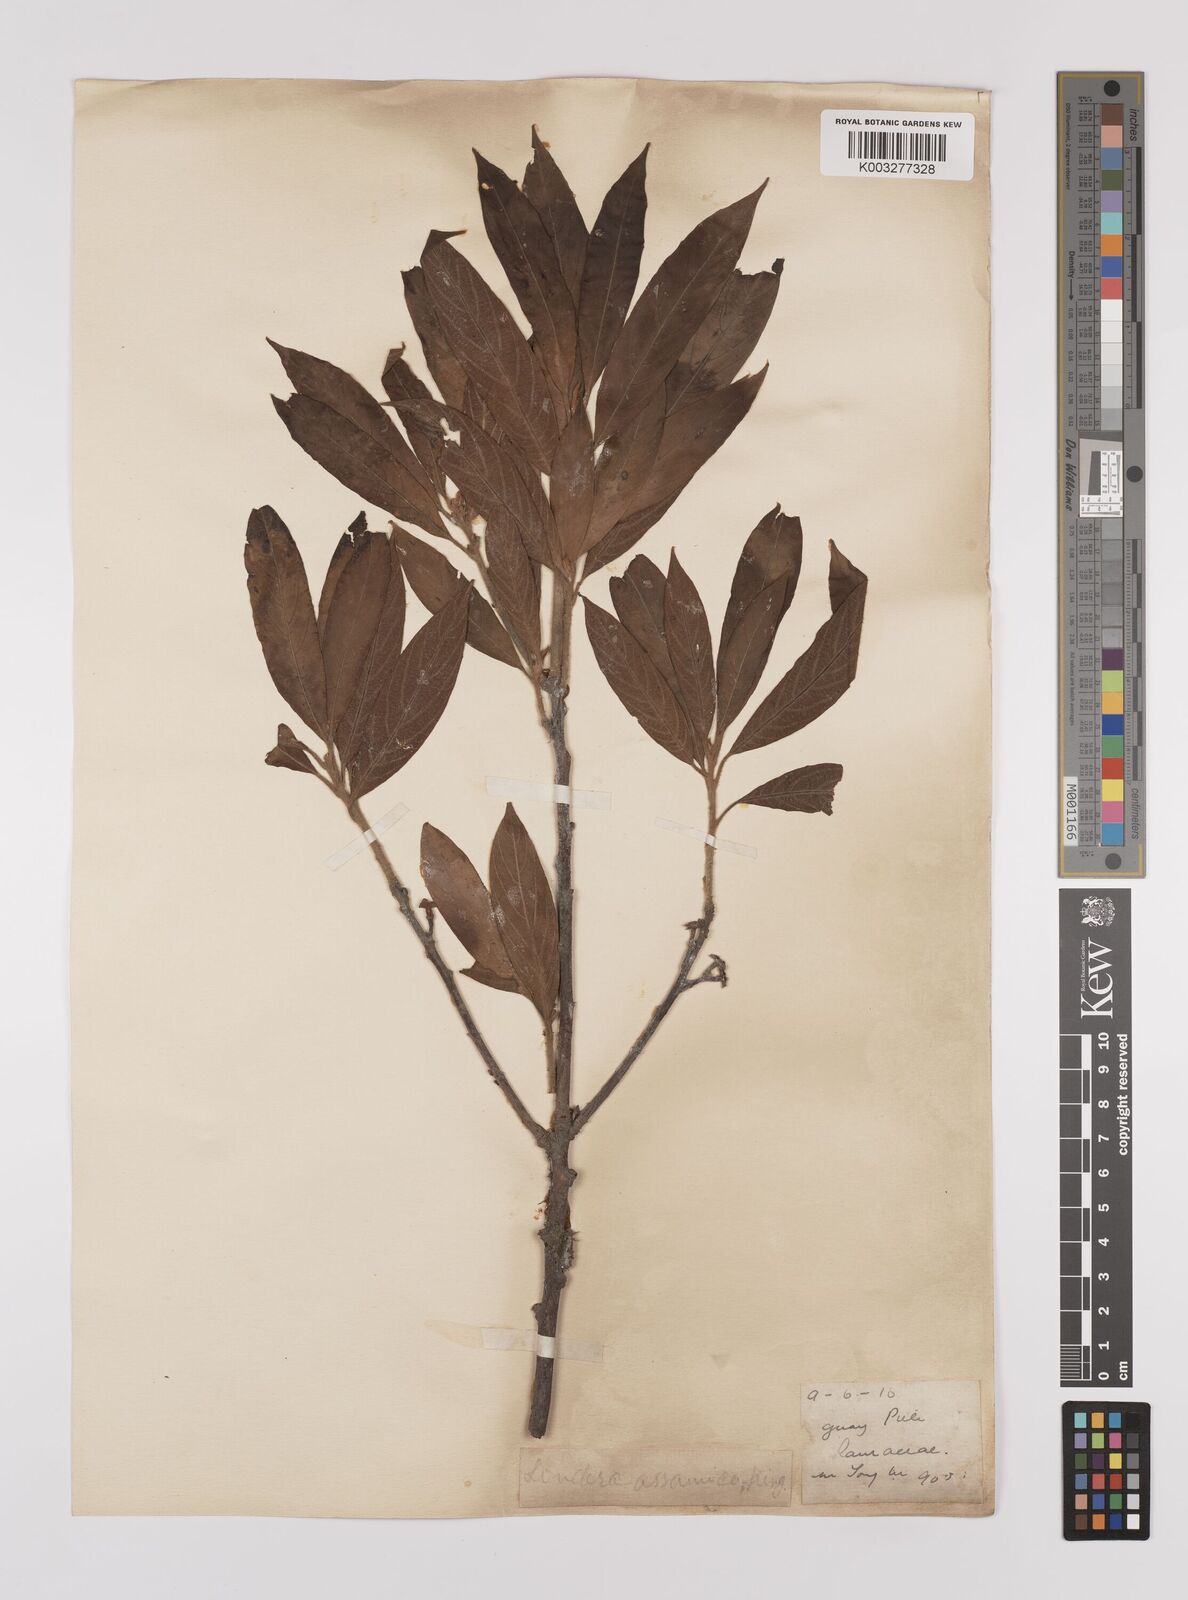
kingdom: Plantae
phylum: Tracheophyta
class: Magnoliopsida
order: Laurales
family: Lauraceae
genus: Litsea
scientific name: Litsea elongata
